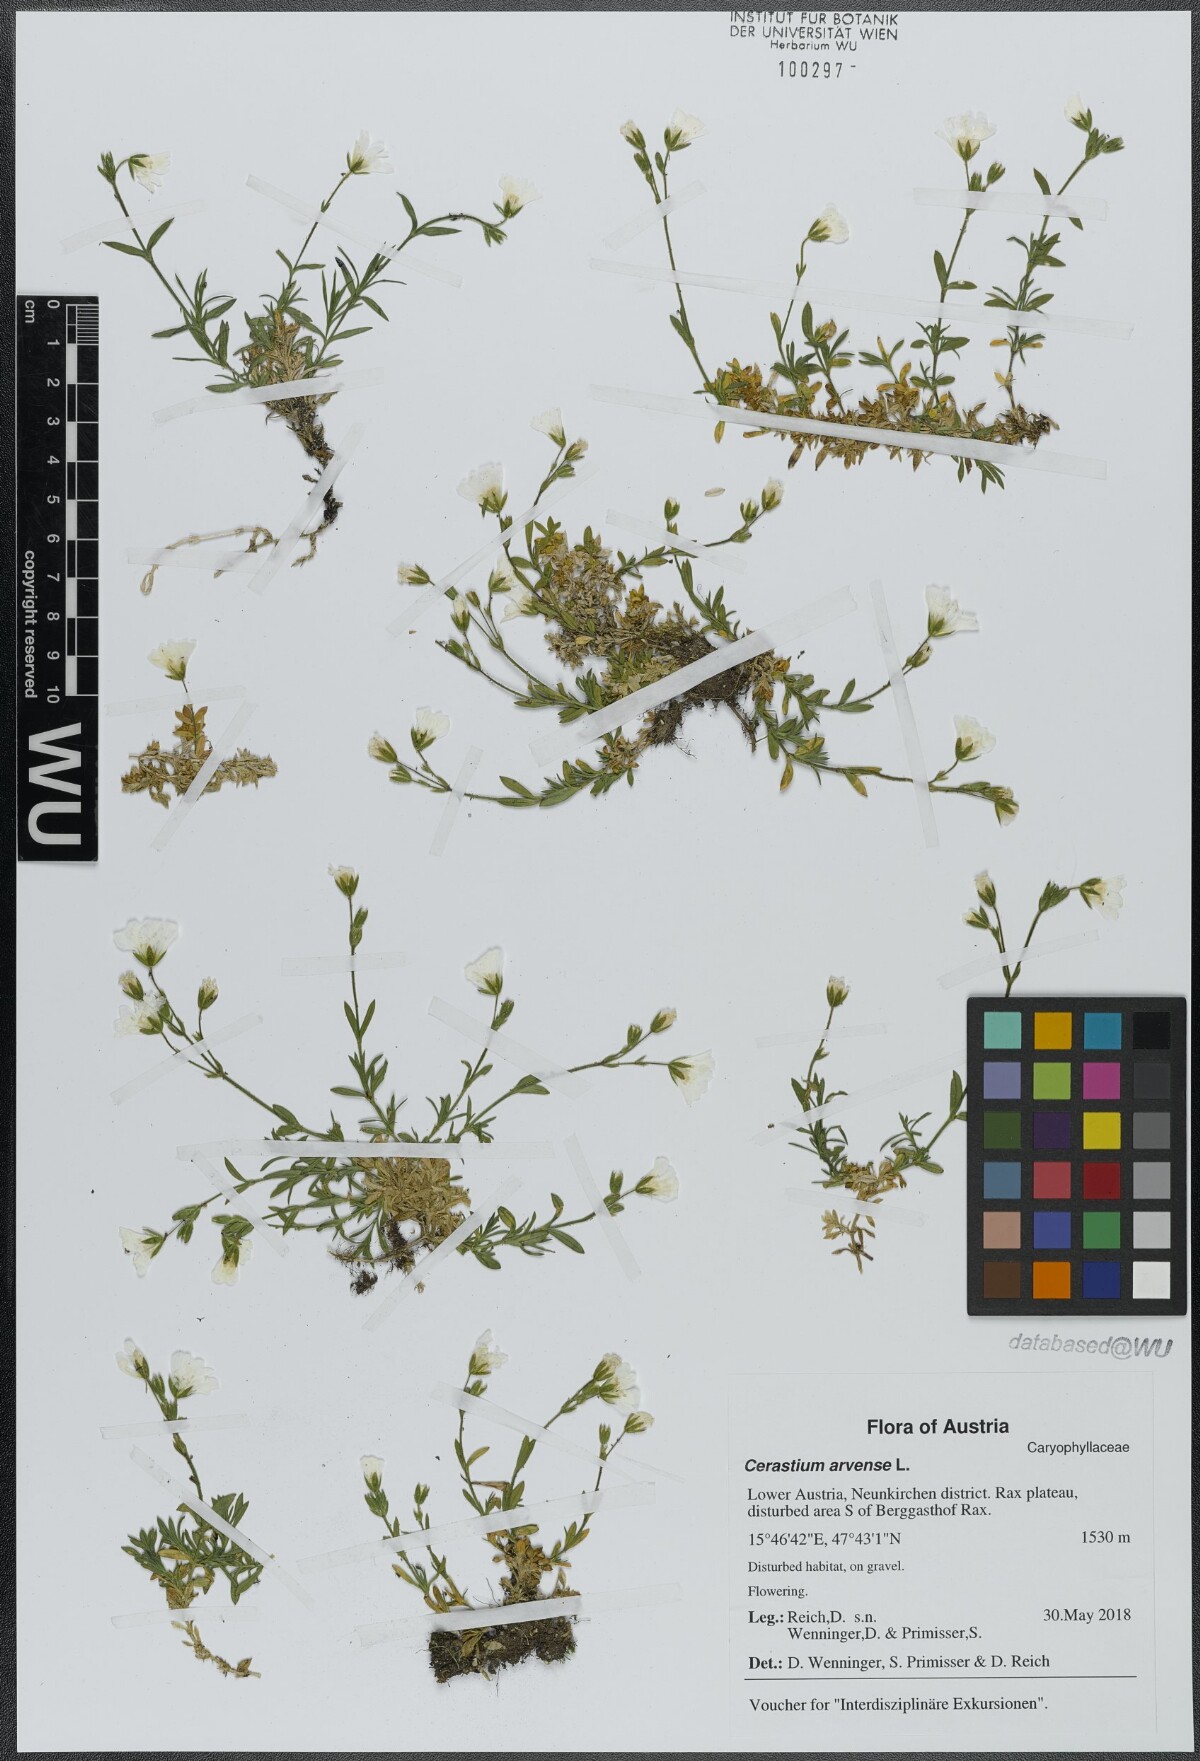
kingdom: Plantae
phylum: Tracheophyta
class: Magnoliopsida
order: Caryophyllales
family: Caryophyllaceae
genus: Cerastium
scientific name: Cerastium arvense
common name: Field mouse-ear
